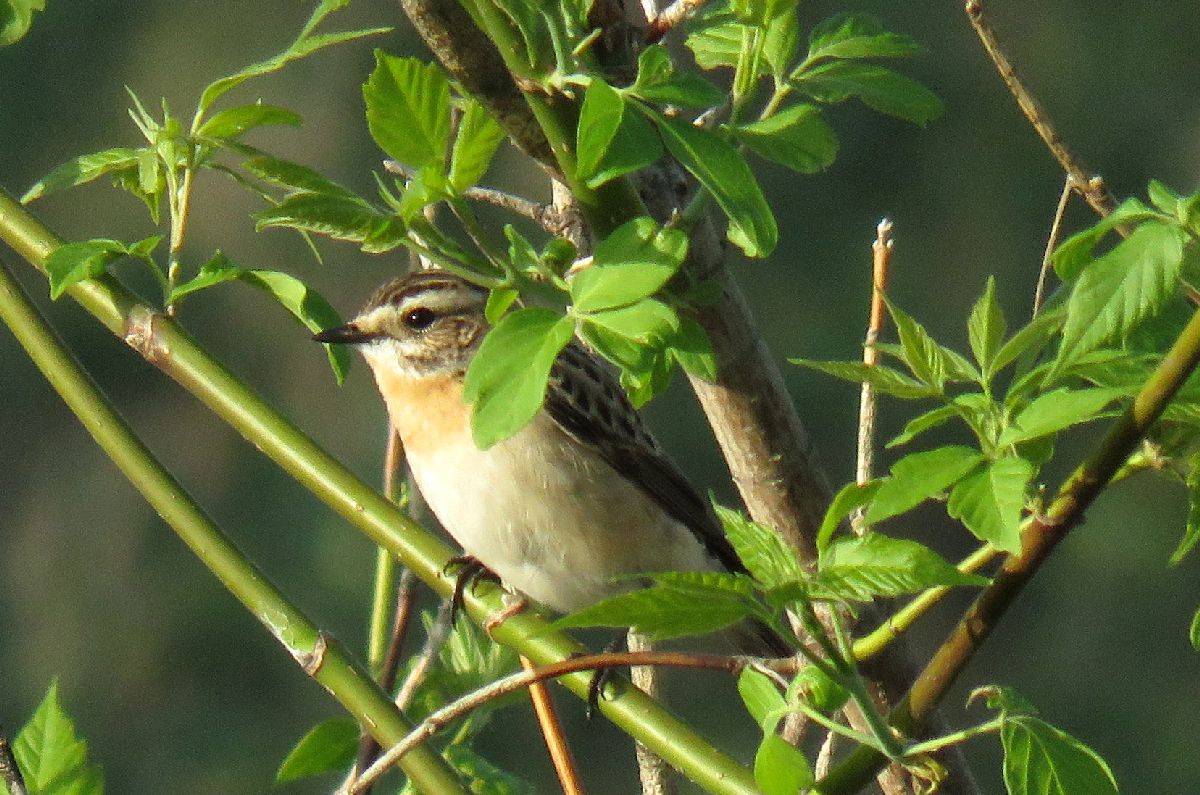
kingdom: Animalia
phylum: Chordata
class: Aves
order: Passeriformes
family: Muscicapidae
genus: Saxicola
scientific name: Saxicola rubetra
